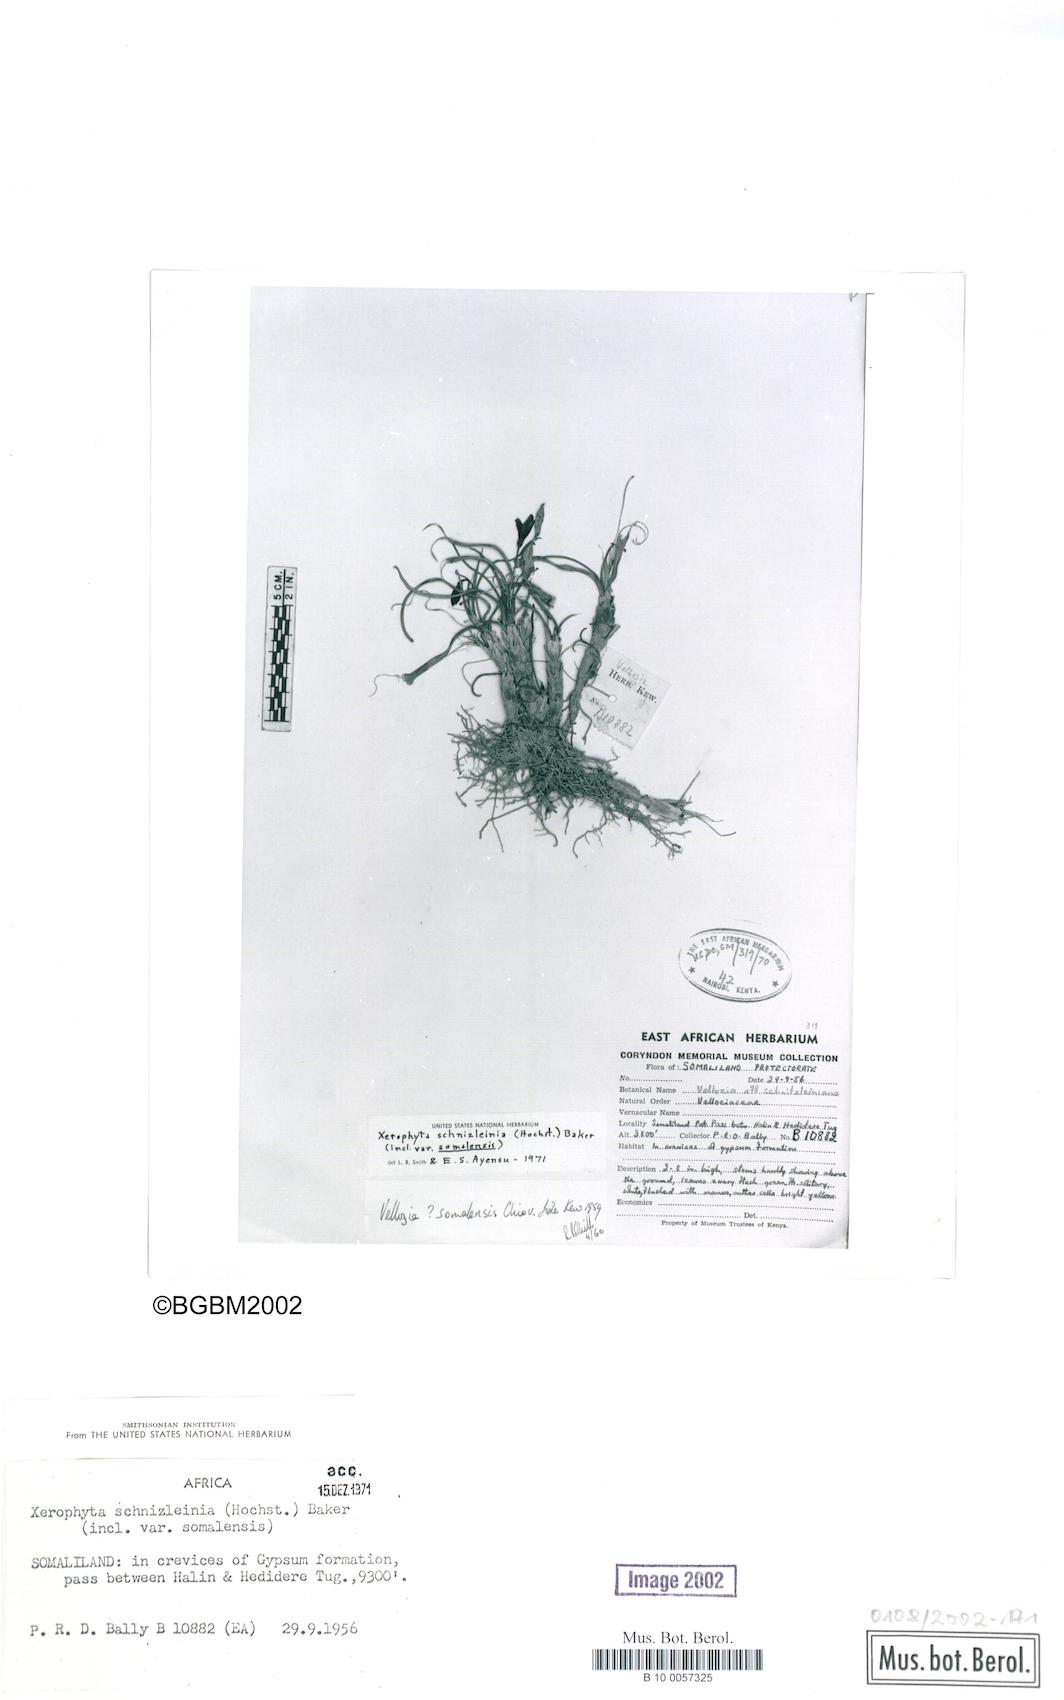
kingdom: Plantae
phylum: Tracheophyta
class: Liliopsida
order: Pandanales
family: Velloziaceae
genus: Xerophyta
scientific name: Xerophyta schnizleinia
